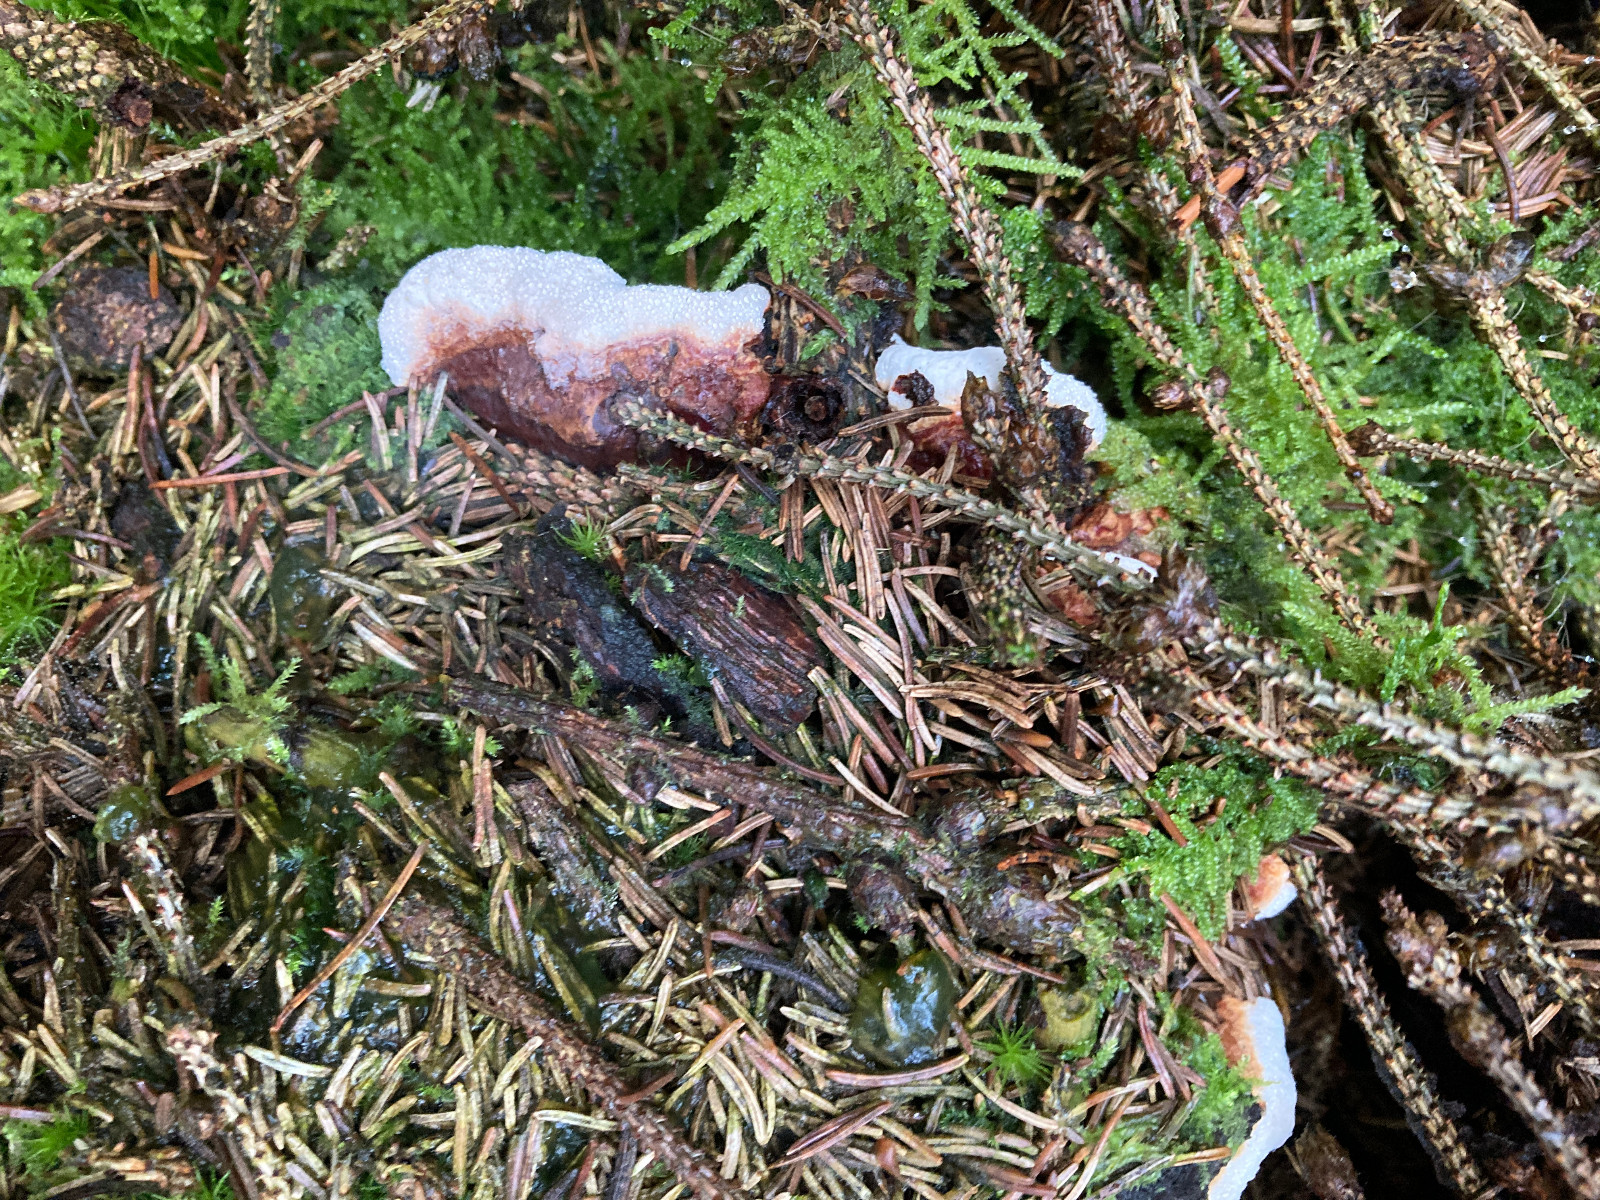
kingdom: Fungi
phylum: Basidiomycota
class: Agaricomycetes
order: Russulales
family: Bondarzewiaceae
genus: Heterobasidion
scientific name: Heterobasidion
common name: rodfordærver
